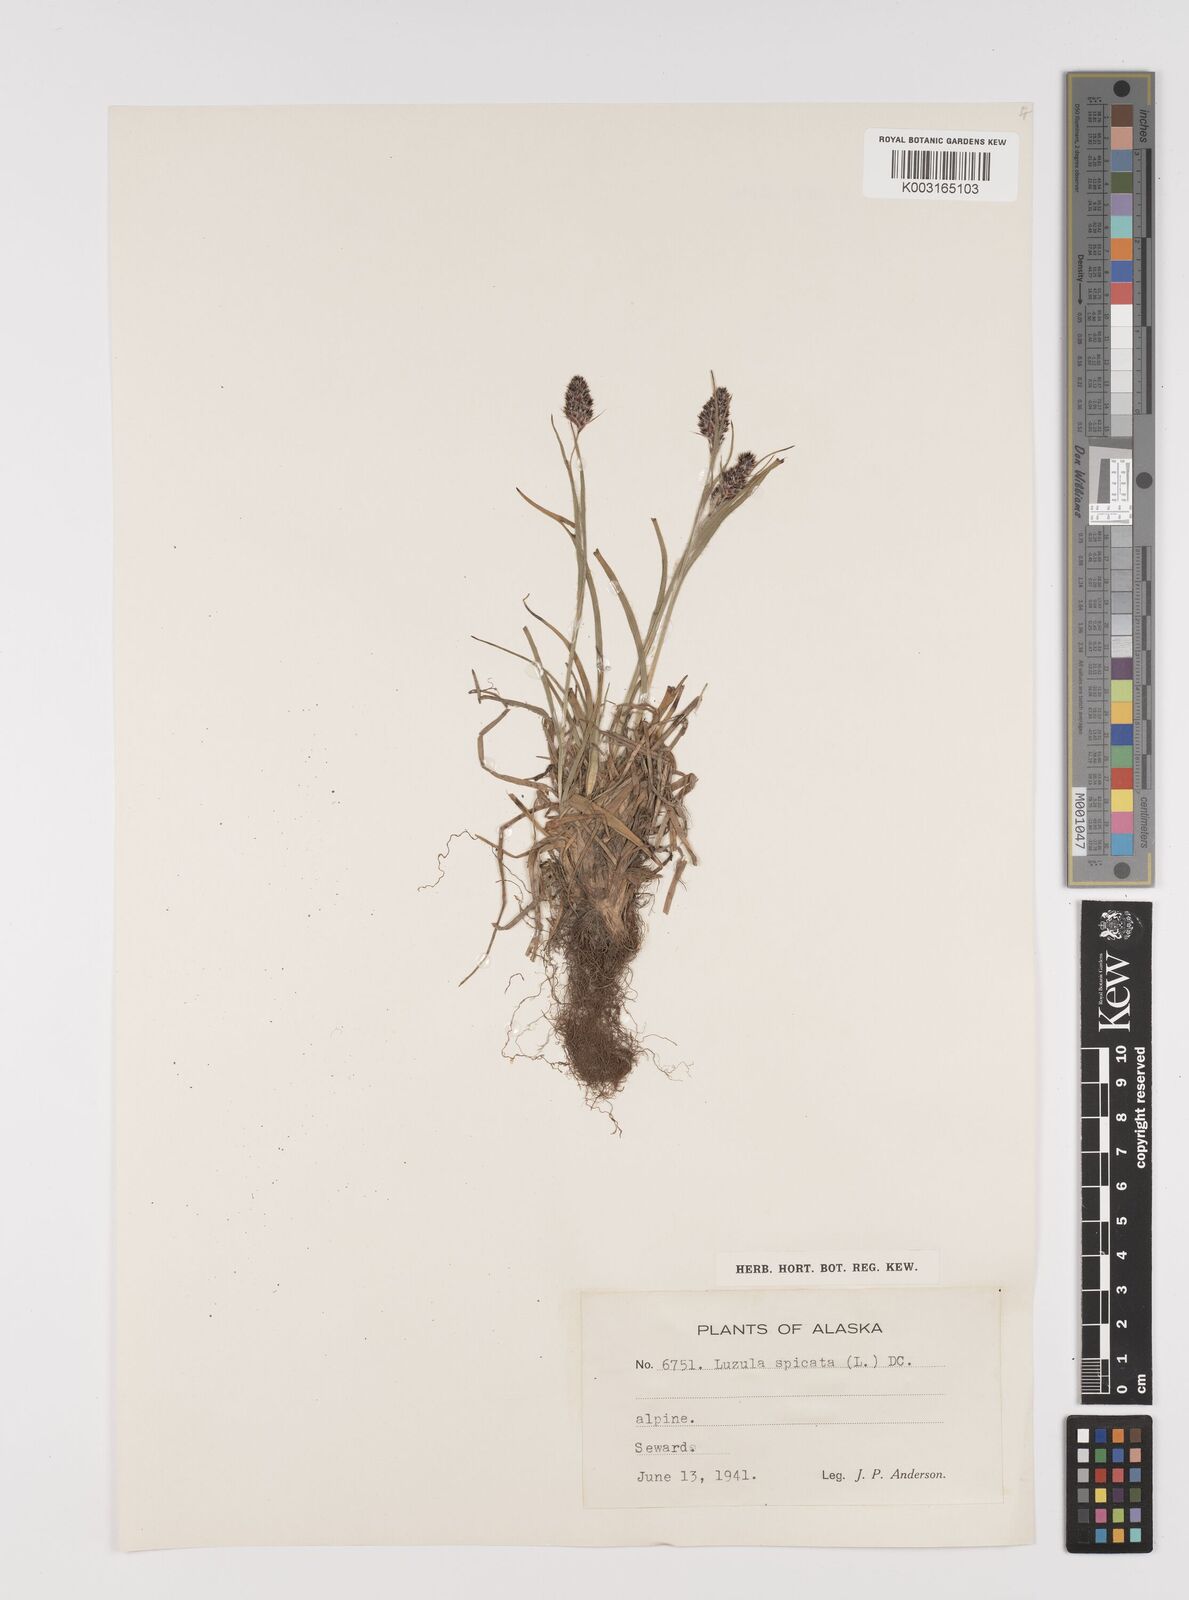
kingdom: Plantae
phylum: Tracheophyta
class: Liliopsida
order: Poales
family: Juncaceae
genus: Luzula
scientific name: Luzula spicata
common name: Spiked wood-rush
